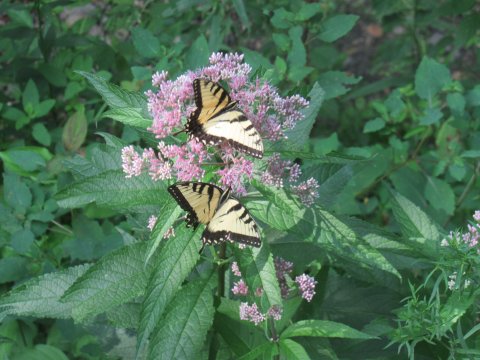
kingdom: Animalia
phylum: Arthropoda
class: Insecta
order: Lepidoptera
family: Papilionidae
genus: Pterourus
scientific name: Pterourus glaucus
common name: Eastern Tiger Swallowtail
